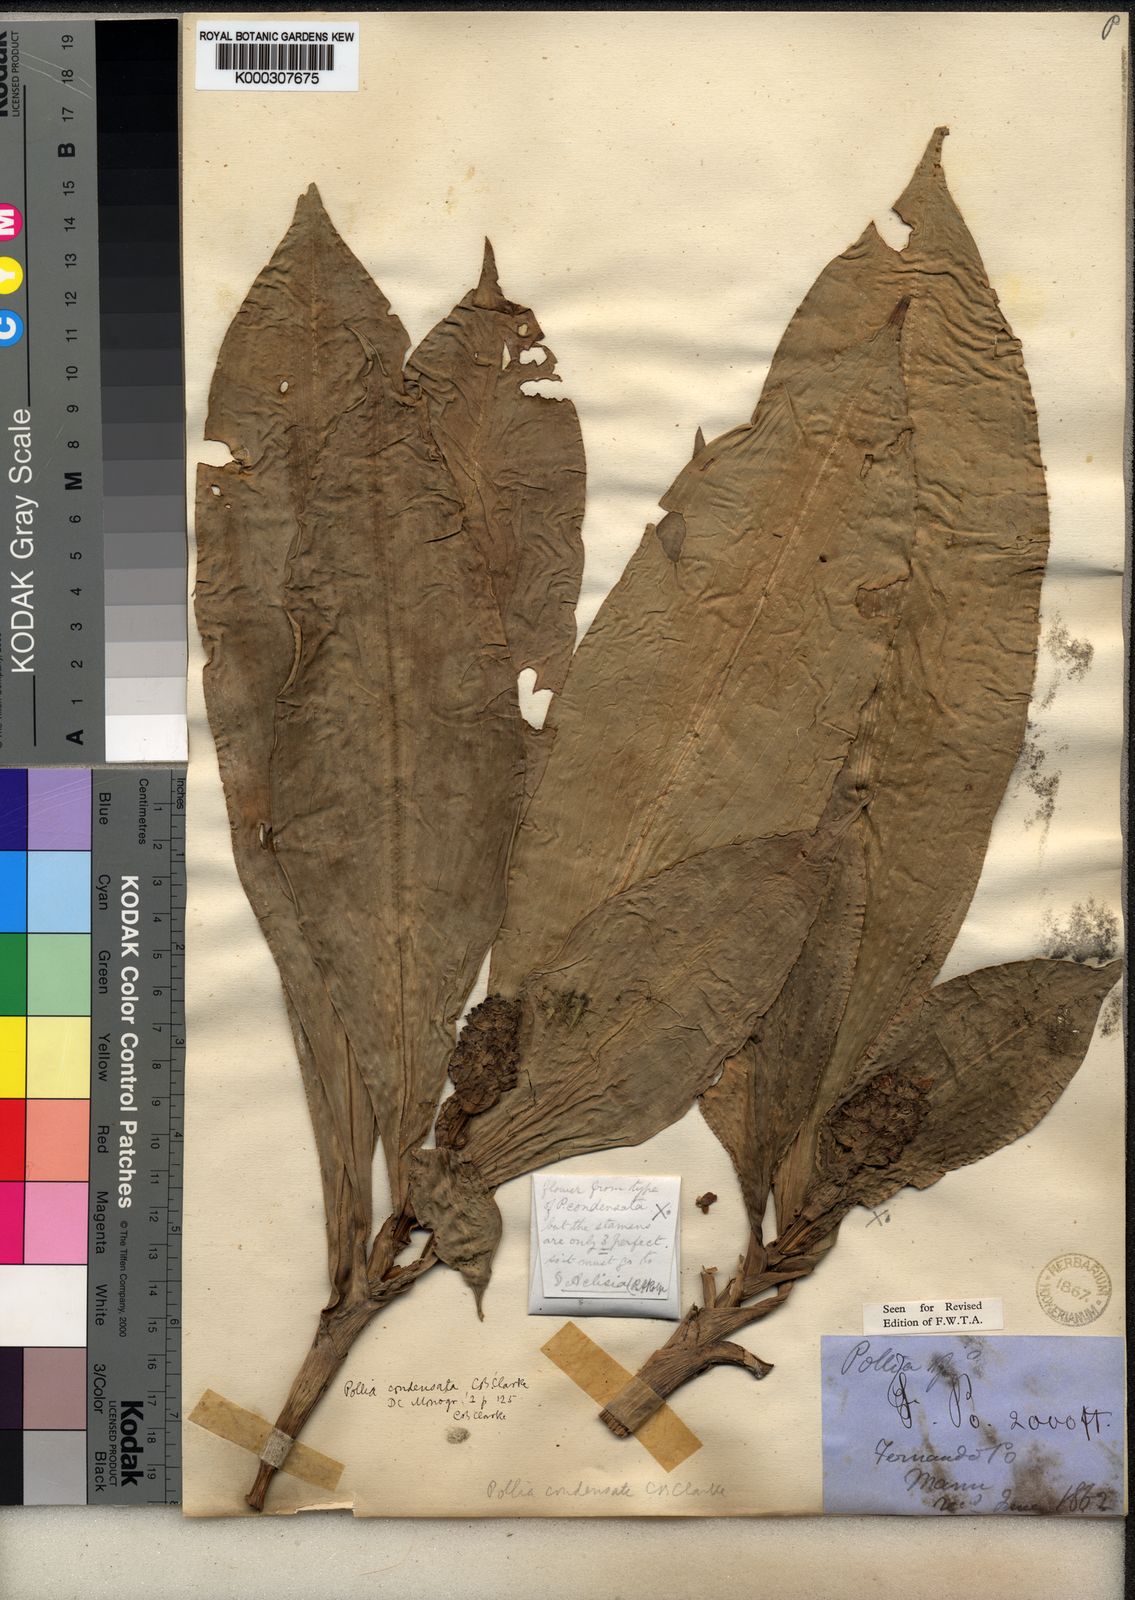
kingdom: Plantae
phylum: Tracheophyta
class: Liliopsida
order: Commelinales
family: Commelinaceae
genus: Pollia
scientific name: Pollia condensata
